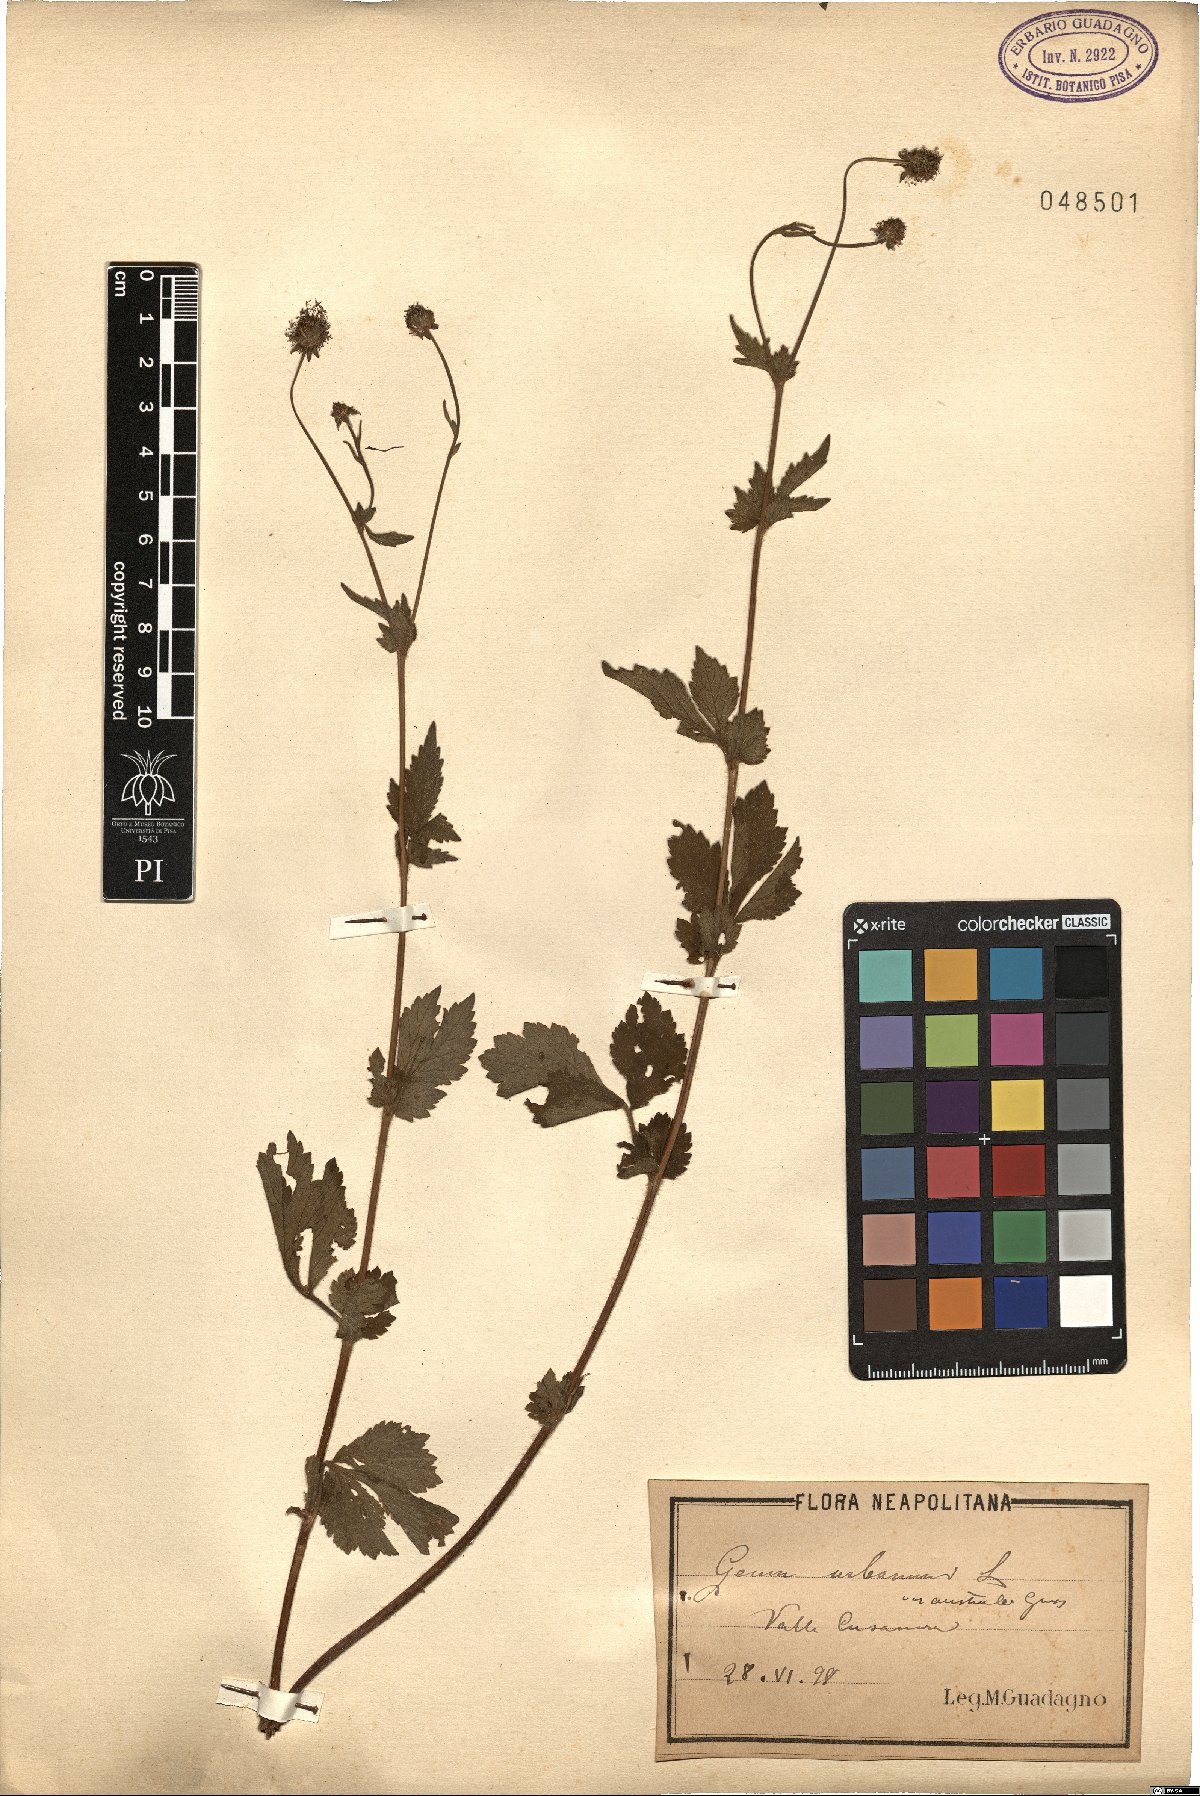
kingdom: Plantae
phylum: Tracheophyta
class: Magnoliopsida
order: Rosales
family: Rosaceae
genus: Geum
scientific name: Geum urbanum
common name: Wood avens
